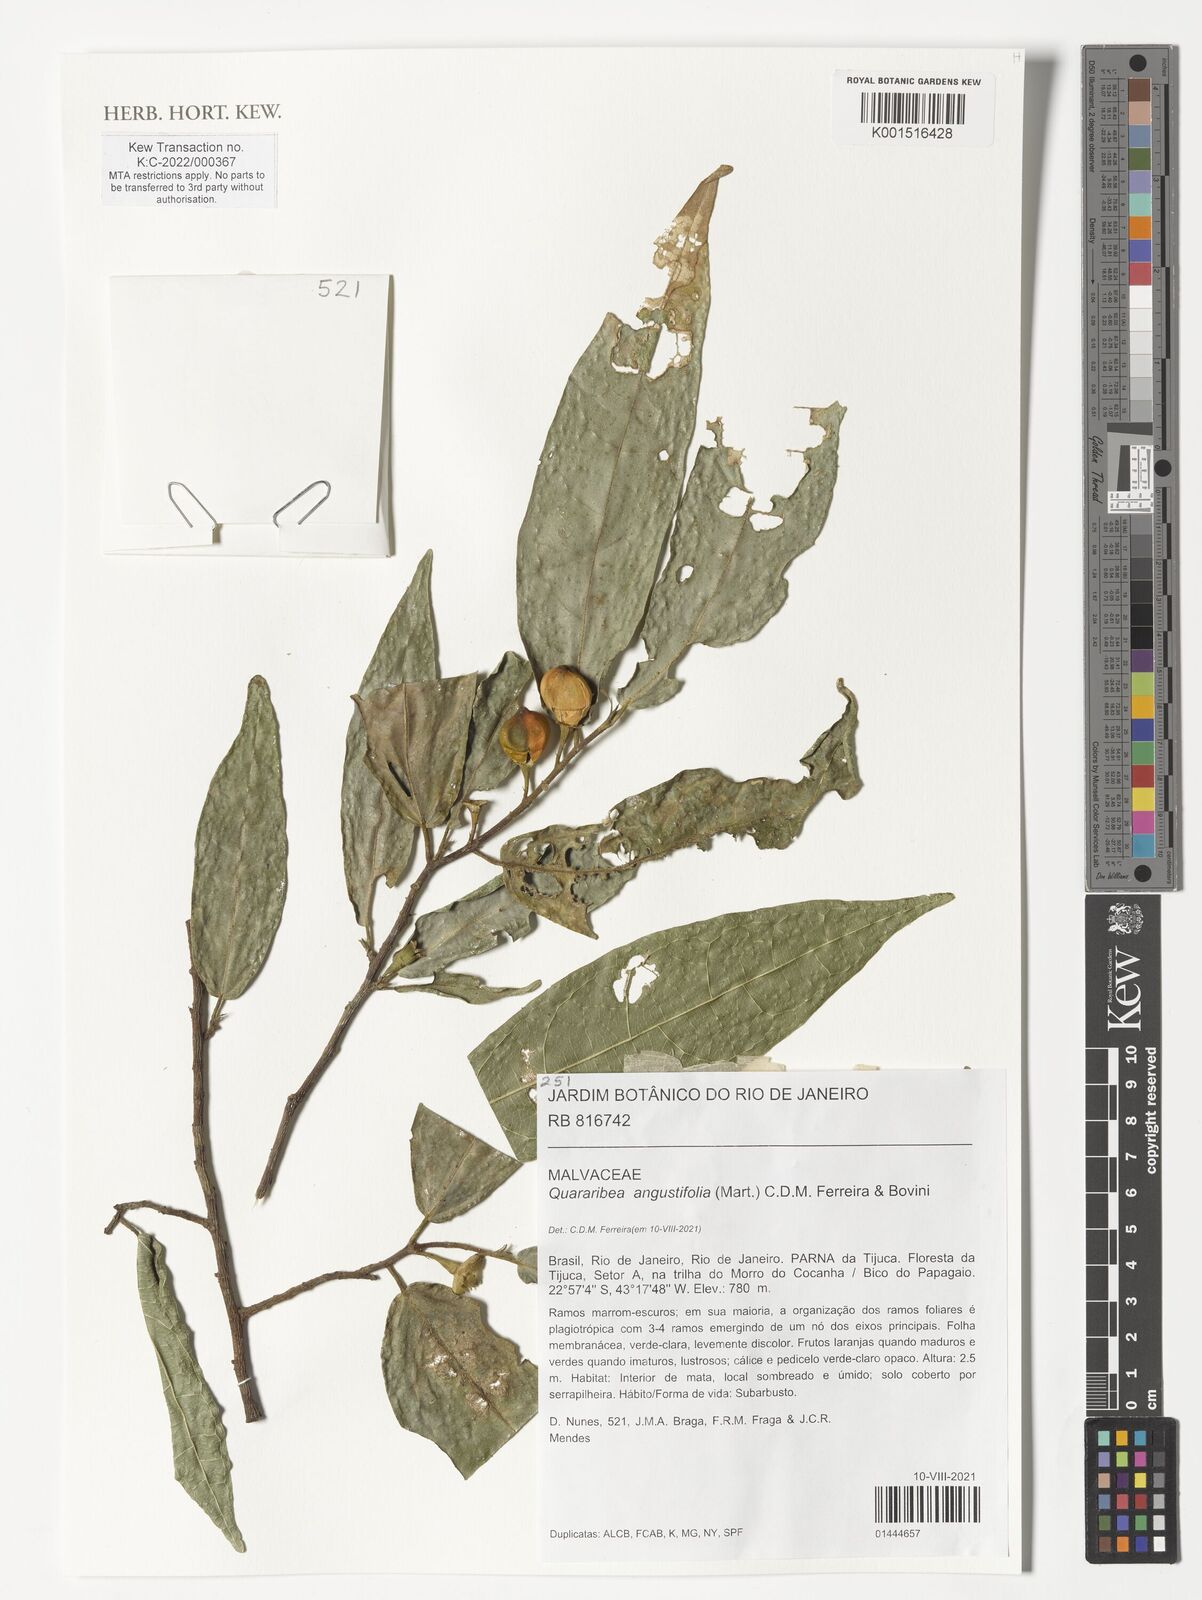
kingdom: Plantae
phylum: Tracheophyta
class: Magnoliopsida
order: Malvales
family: Malvaceae
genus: Quararibea
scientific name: Quararibea angustifolia
